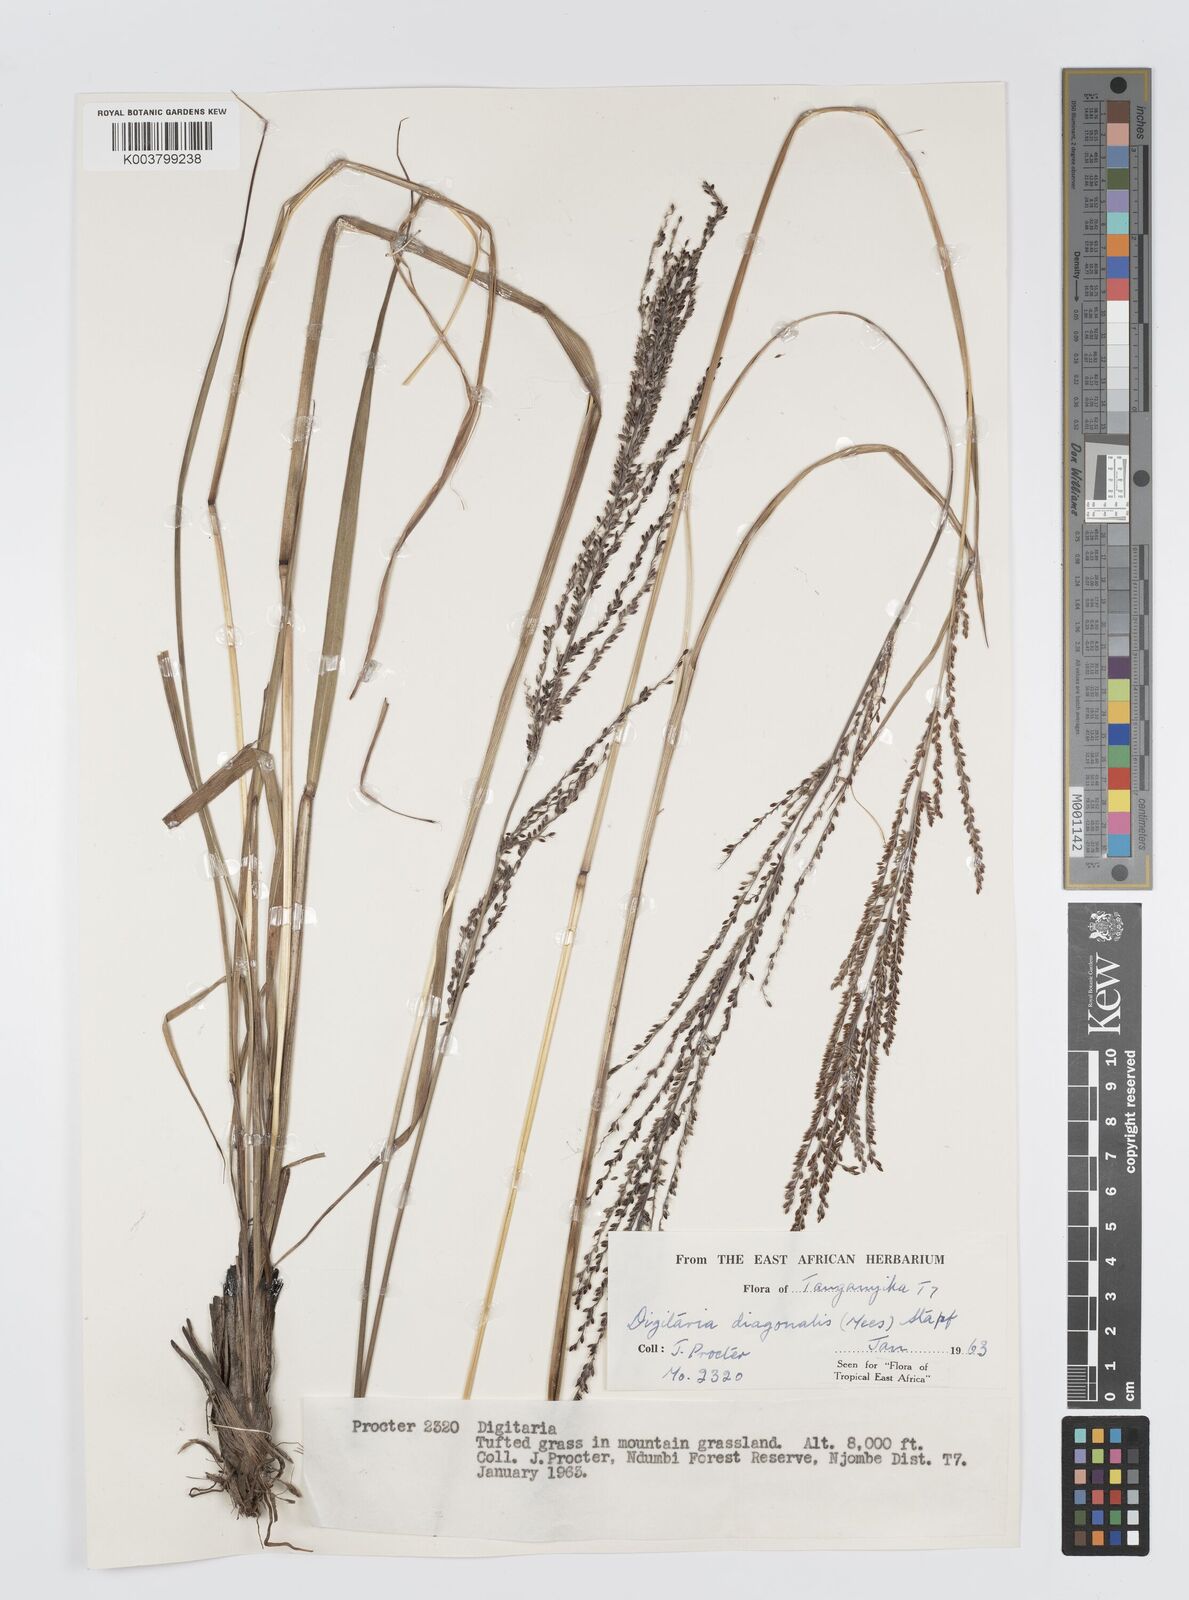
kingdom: Plantae
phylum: Tracheophyta
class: Liliopsida
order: Poales
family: Poaceae
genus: Digitaria
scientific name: Digitaria diagonalis
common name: Brown-seed finger grass
